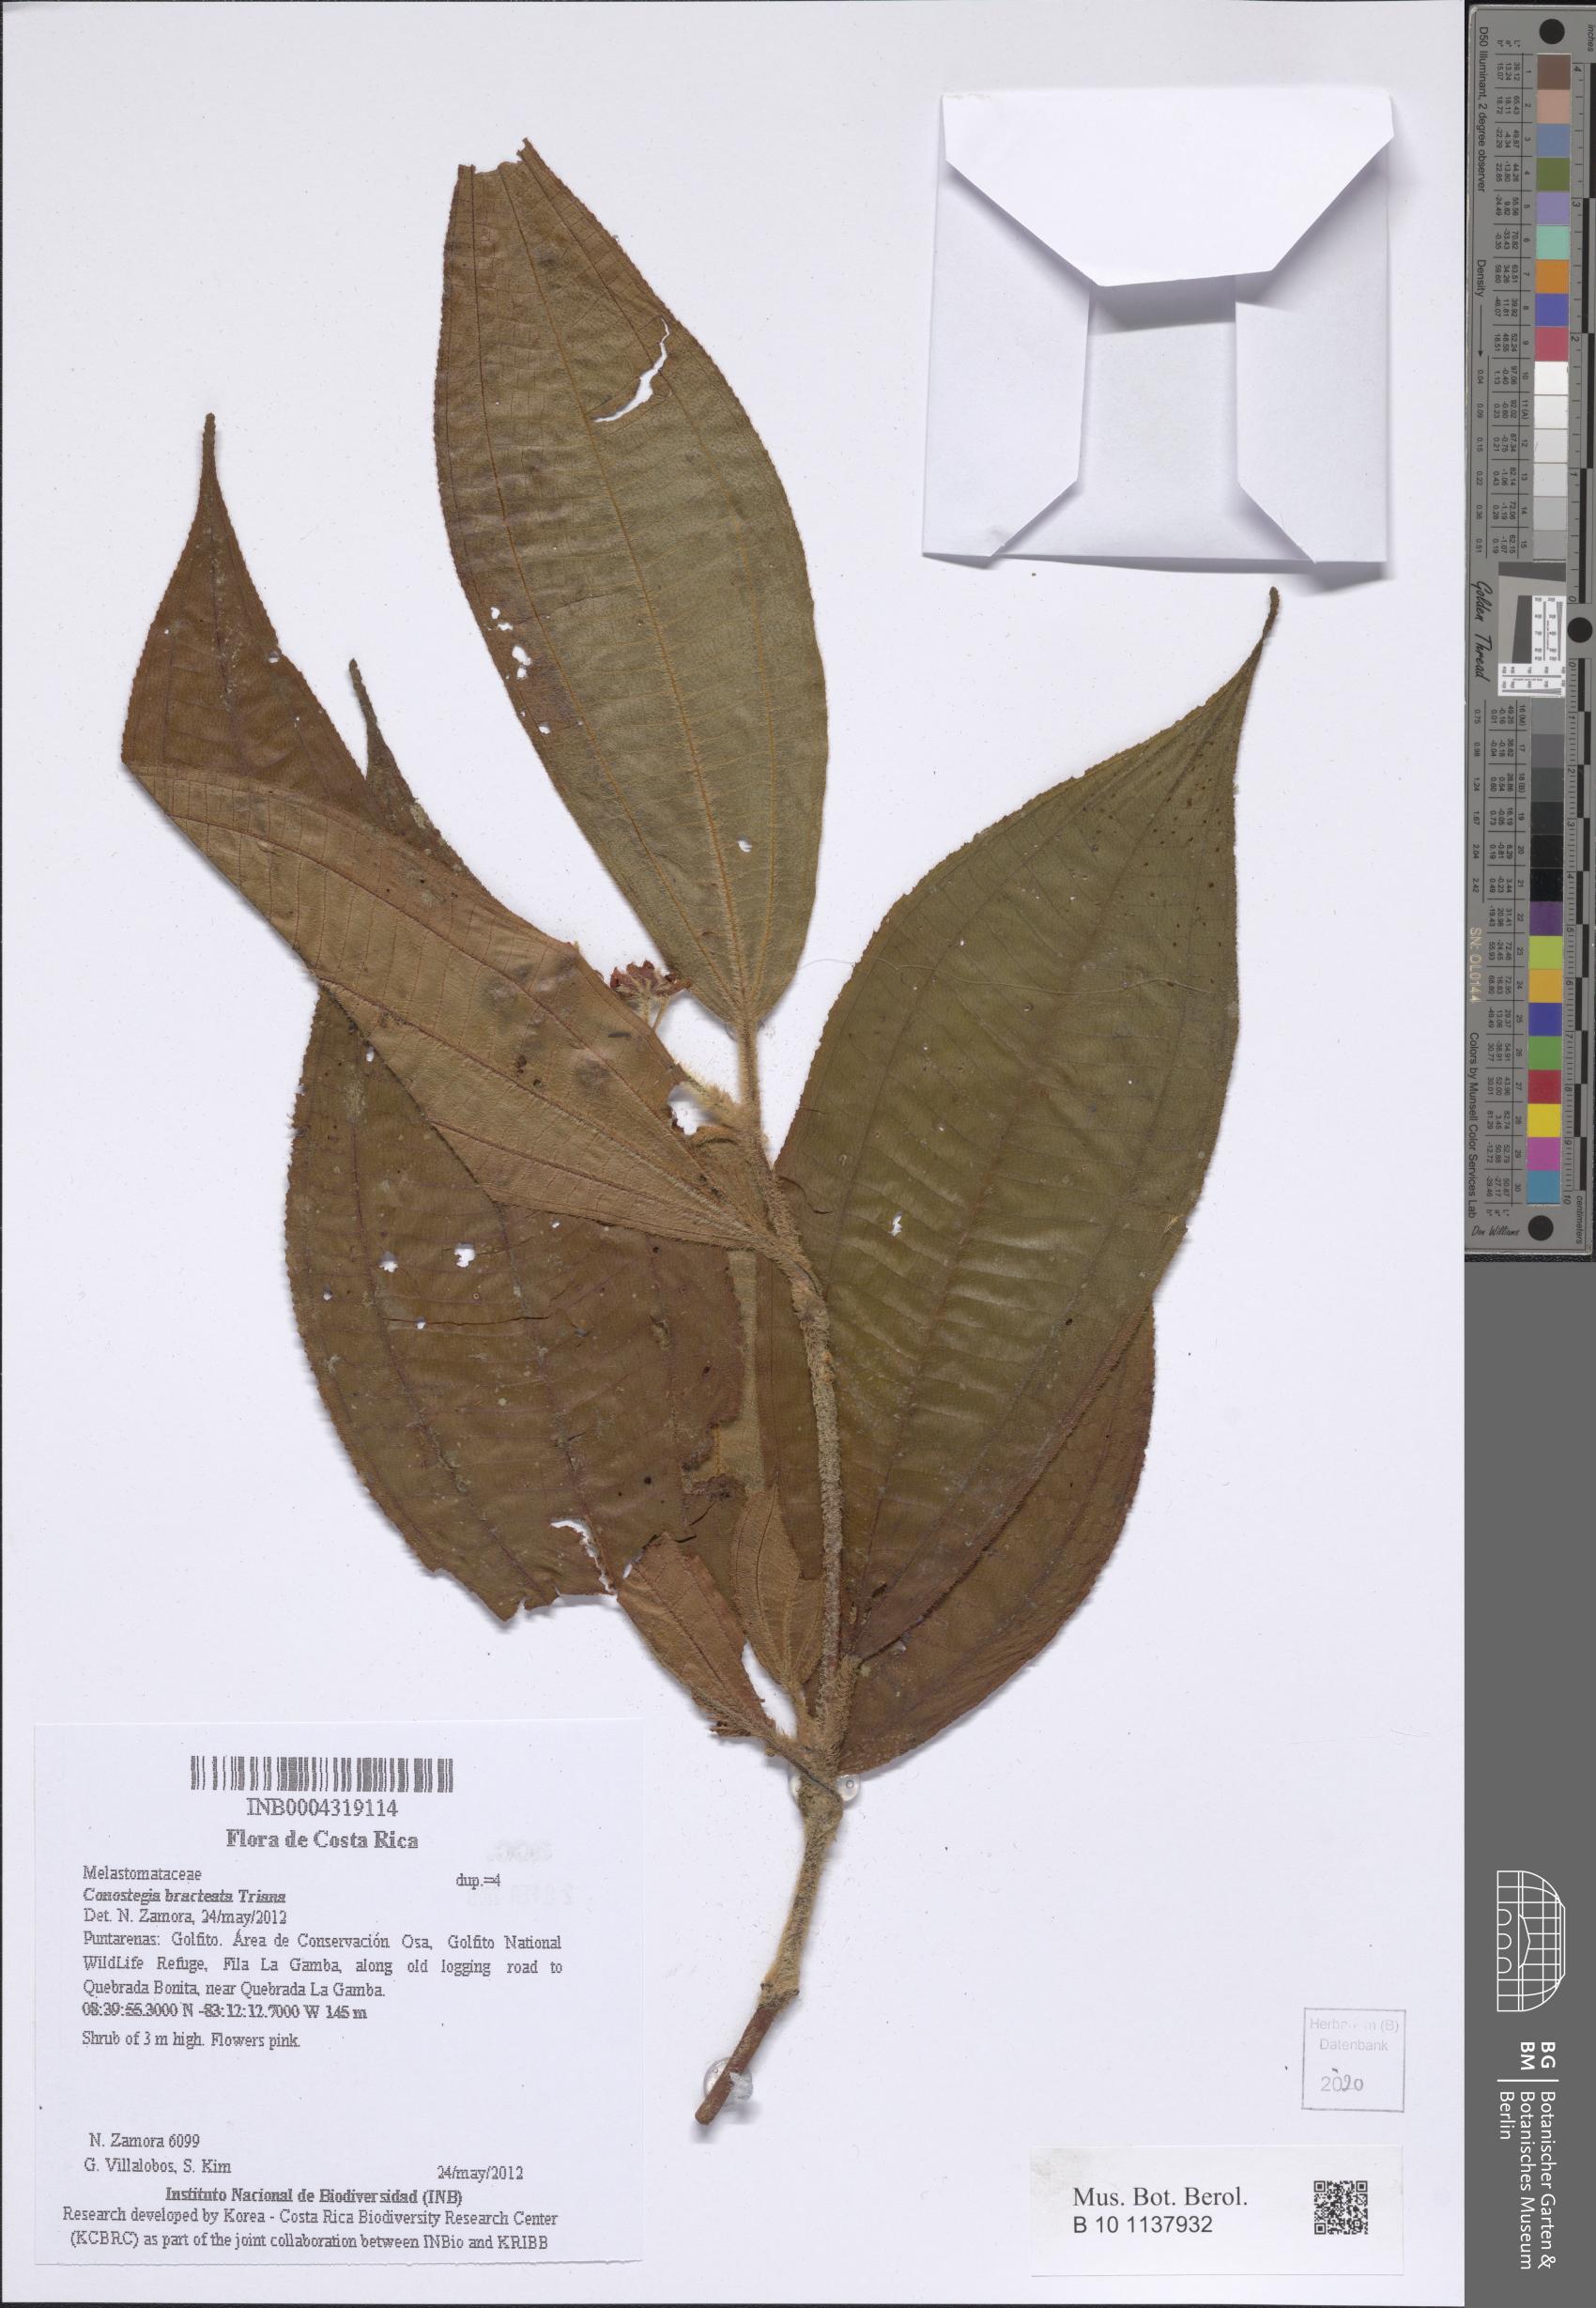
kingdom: Plantae
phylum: Tracheophyta
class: Magnoliopsida
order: Myrtales
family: Melastomataceae
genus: Miconia
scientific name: Miconia conobracteata
